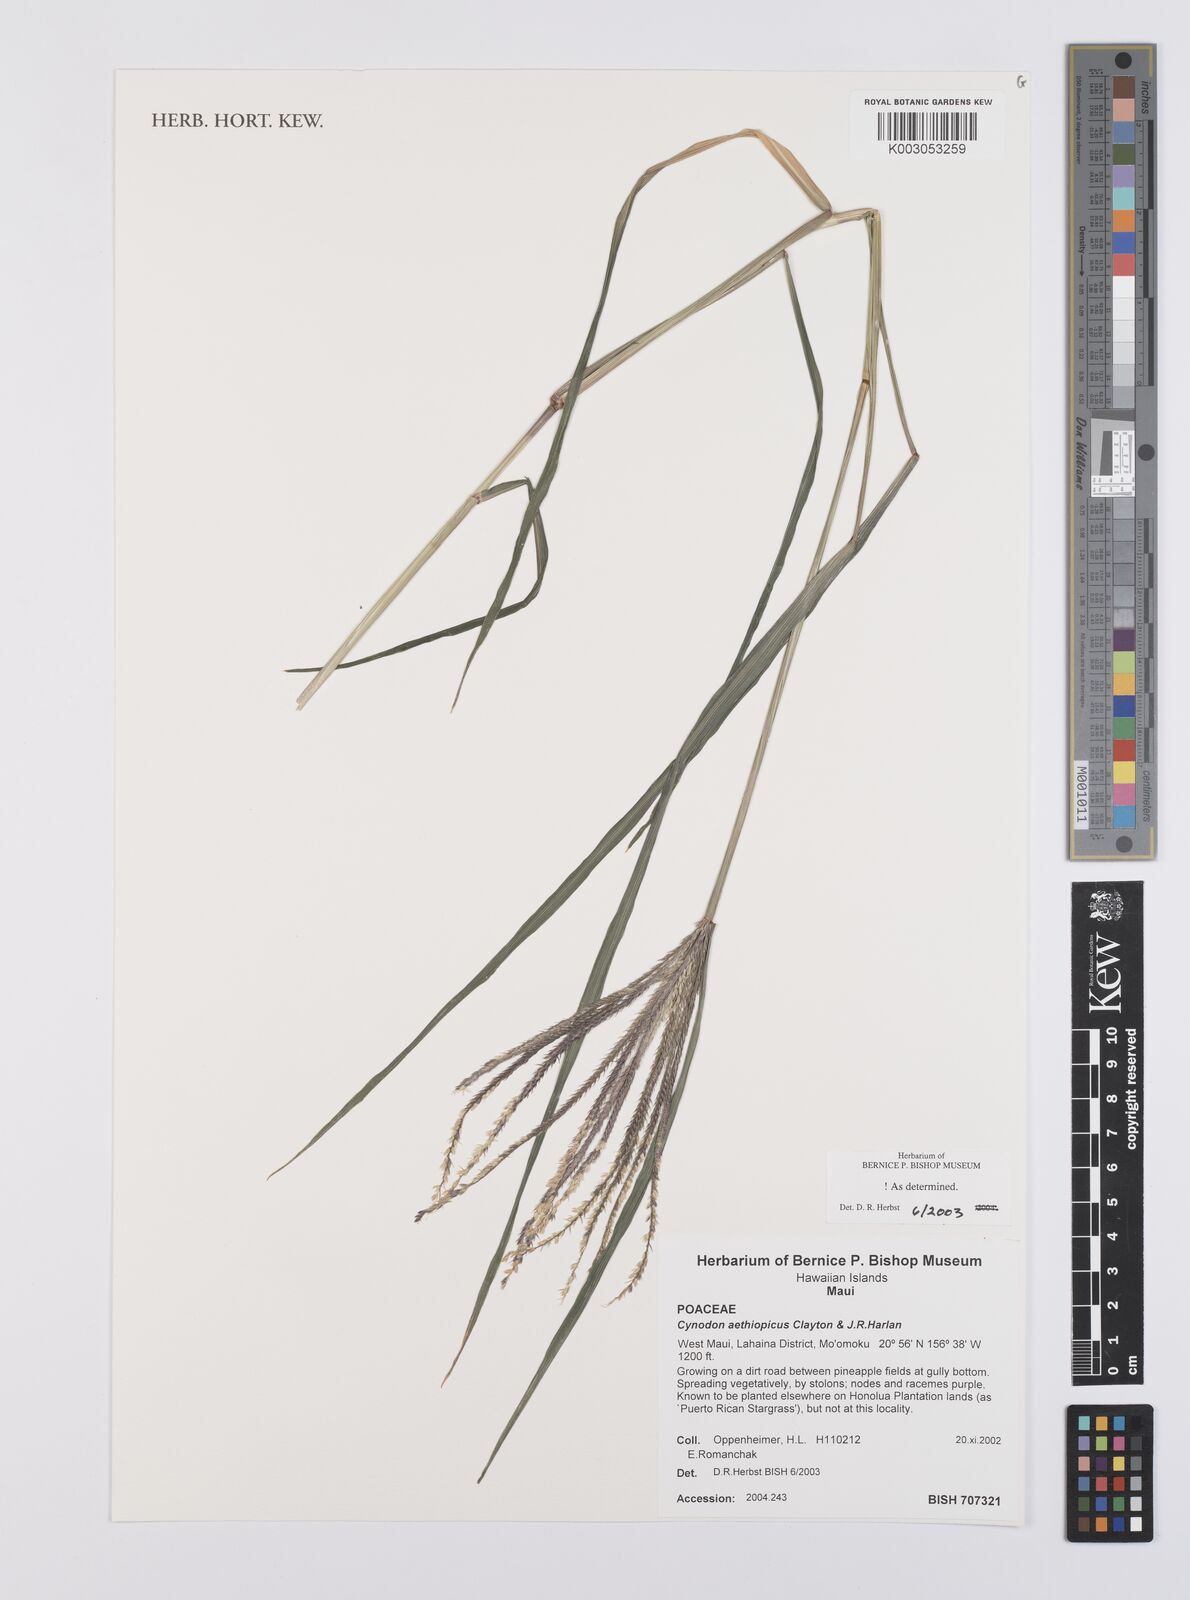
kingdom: Plantae
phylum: Tracheophyta
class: Liliopsida
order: Poales
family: Poaceae
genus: Cynodon
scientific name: Cynodon aethiopicus
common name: Ethiopian dogstooth grass
